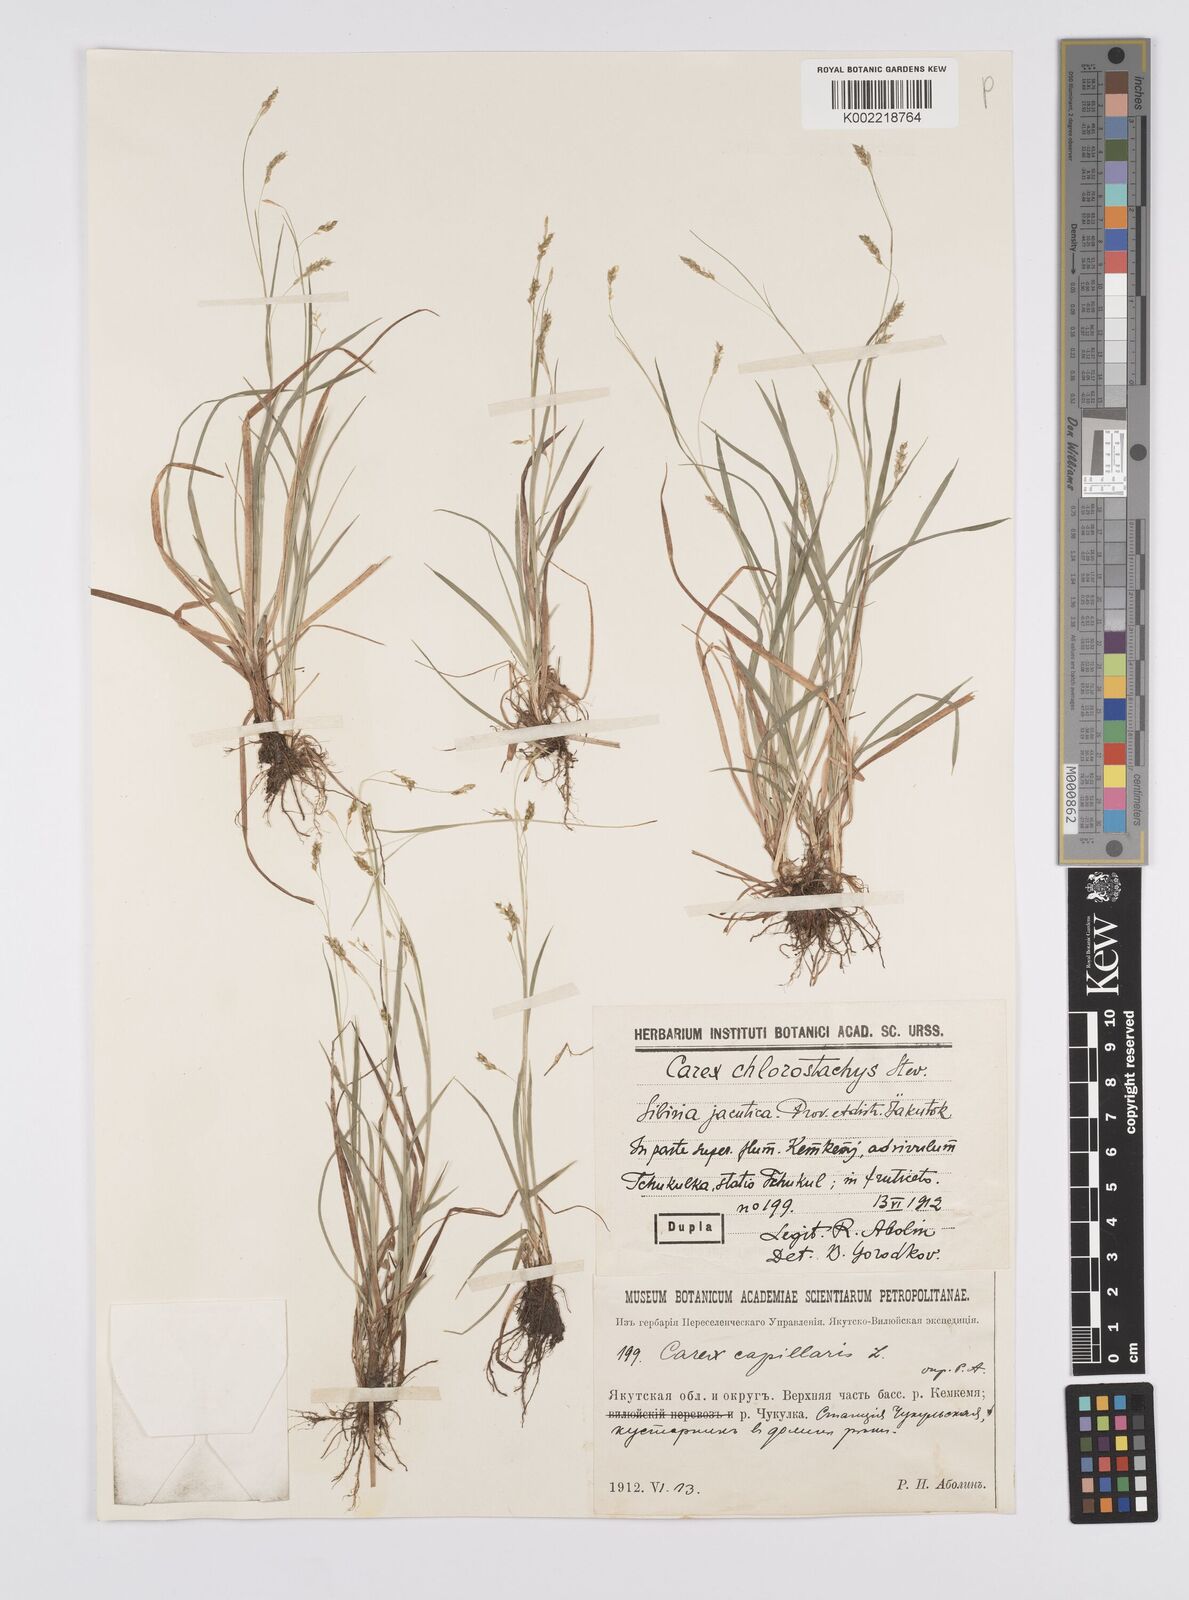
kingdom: Plantae
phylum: Tracheophyta
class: Liliopsida
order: Poales
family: Cyperaceae
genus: Carex
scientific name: Carex capillaris
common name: Hair sedge
